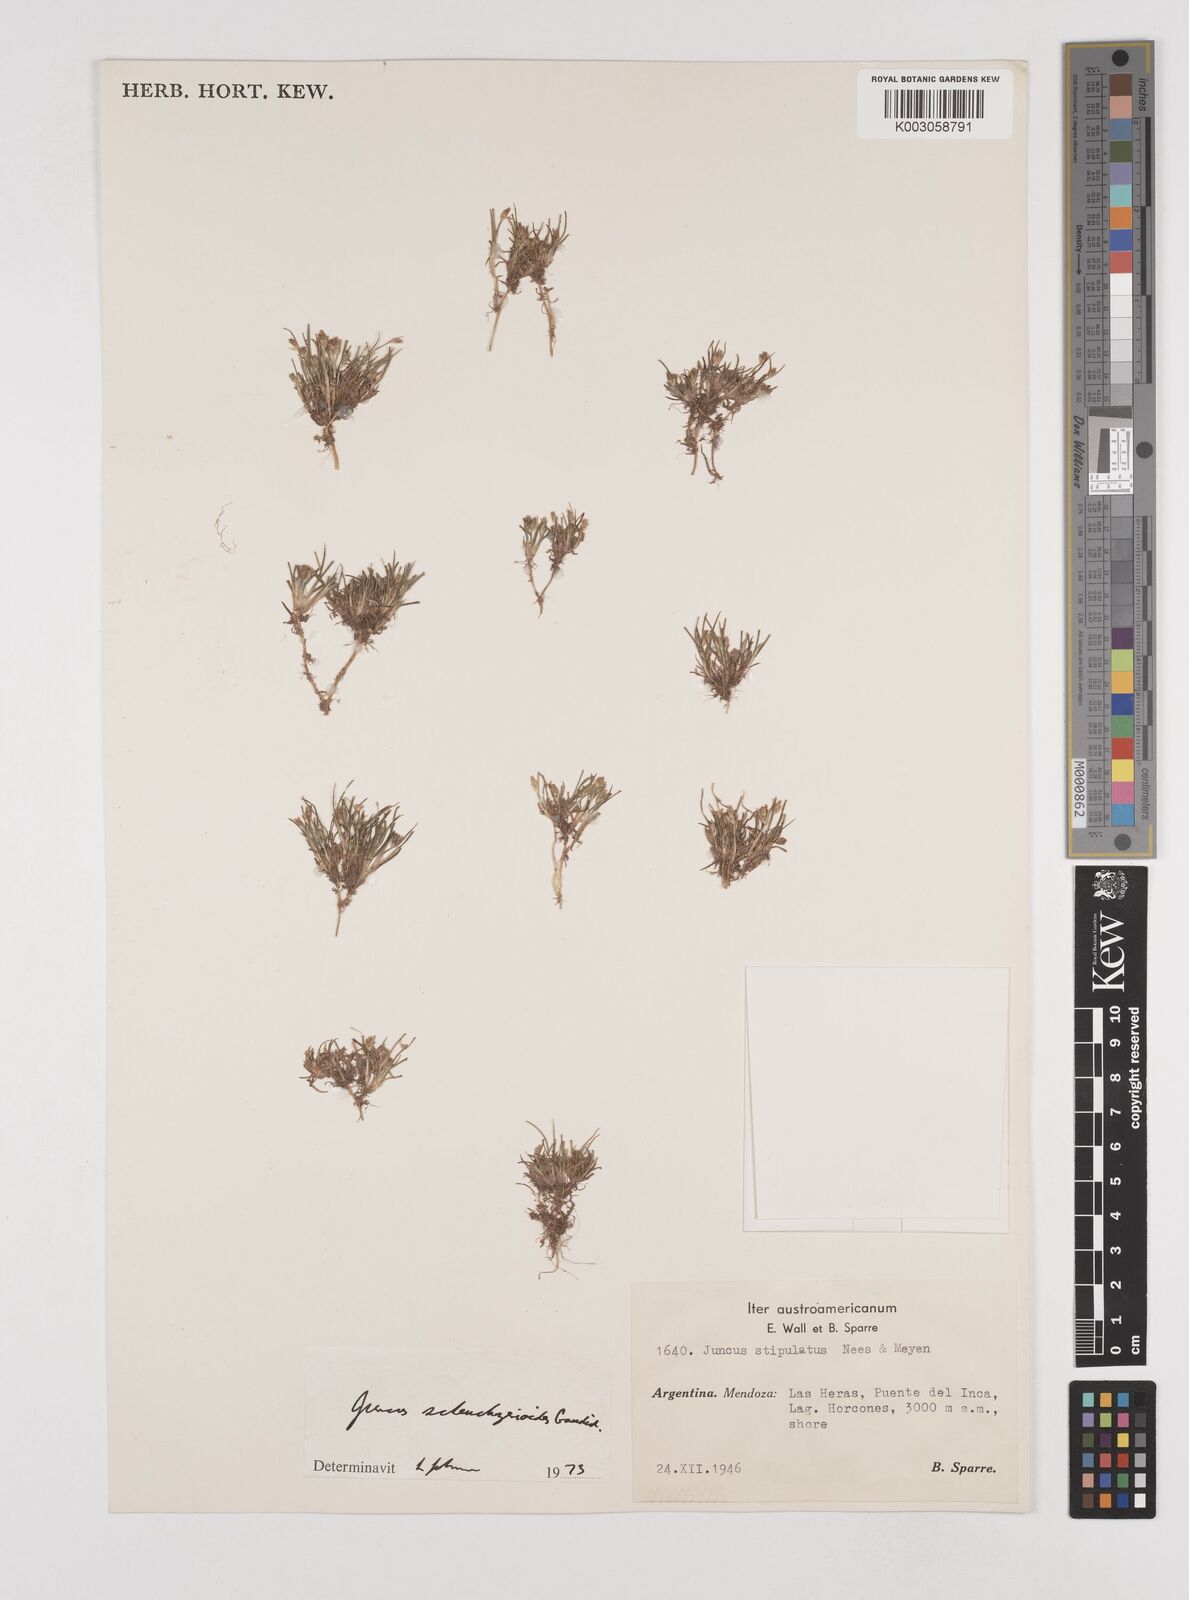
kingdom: Plantae
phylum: Tracheophyta
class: Liliopsida
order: Poales
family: Juncaceae
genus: Juncus
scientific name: Juncus scheuchzerioides
